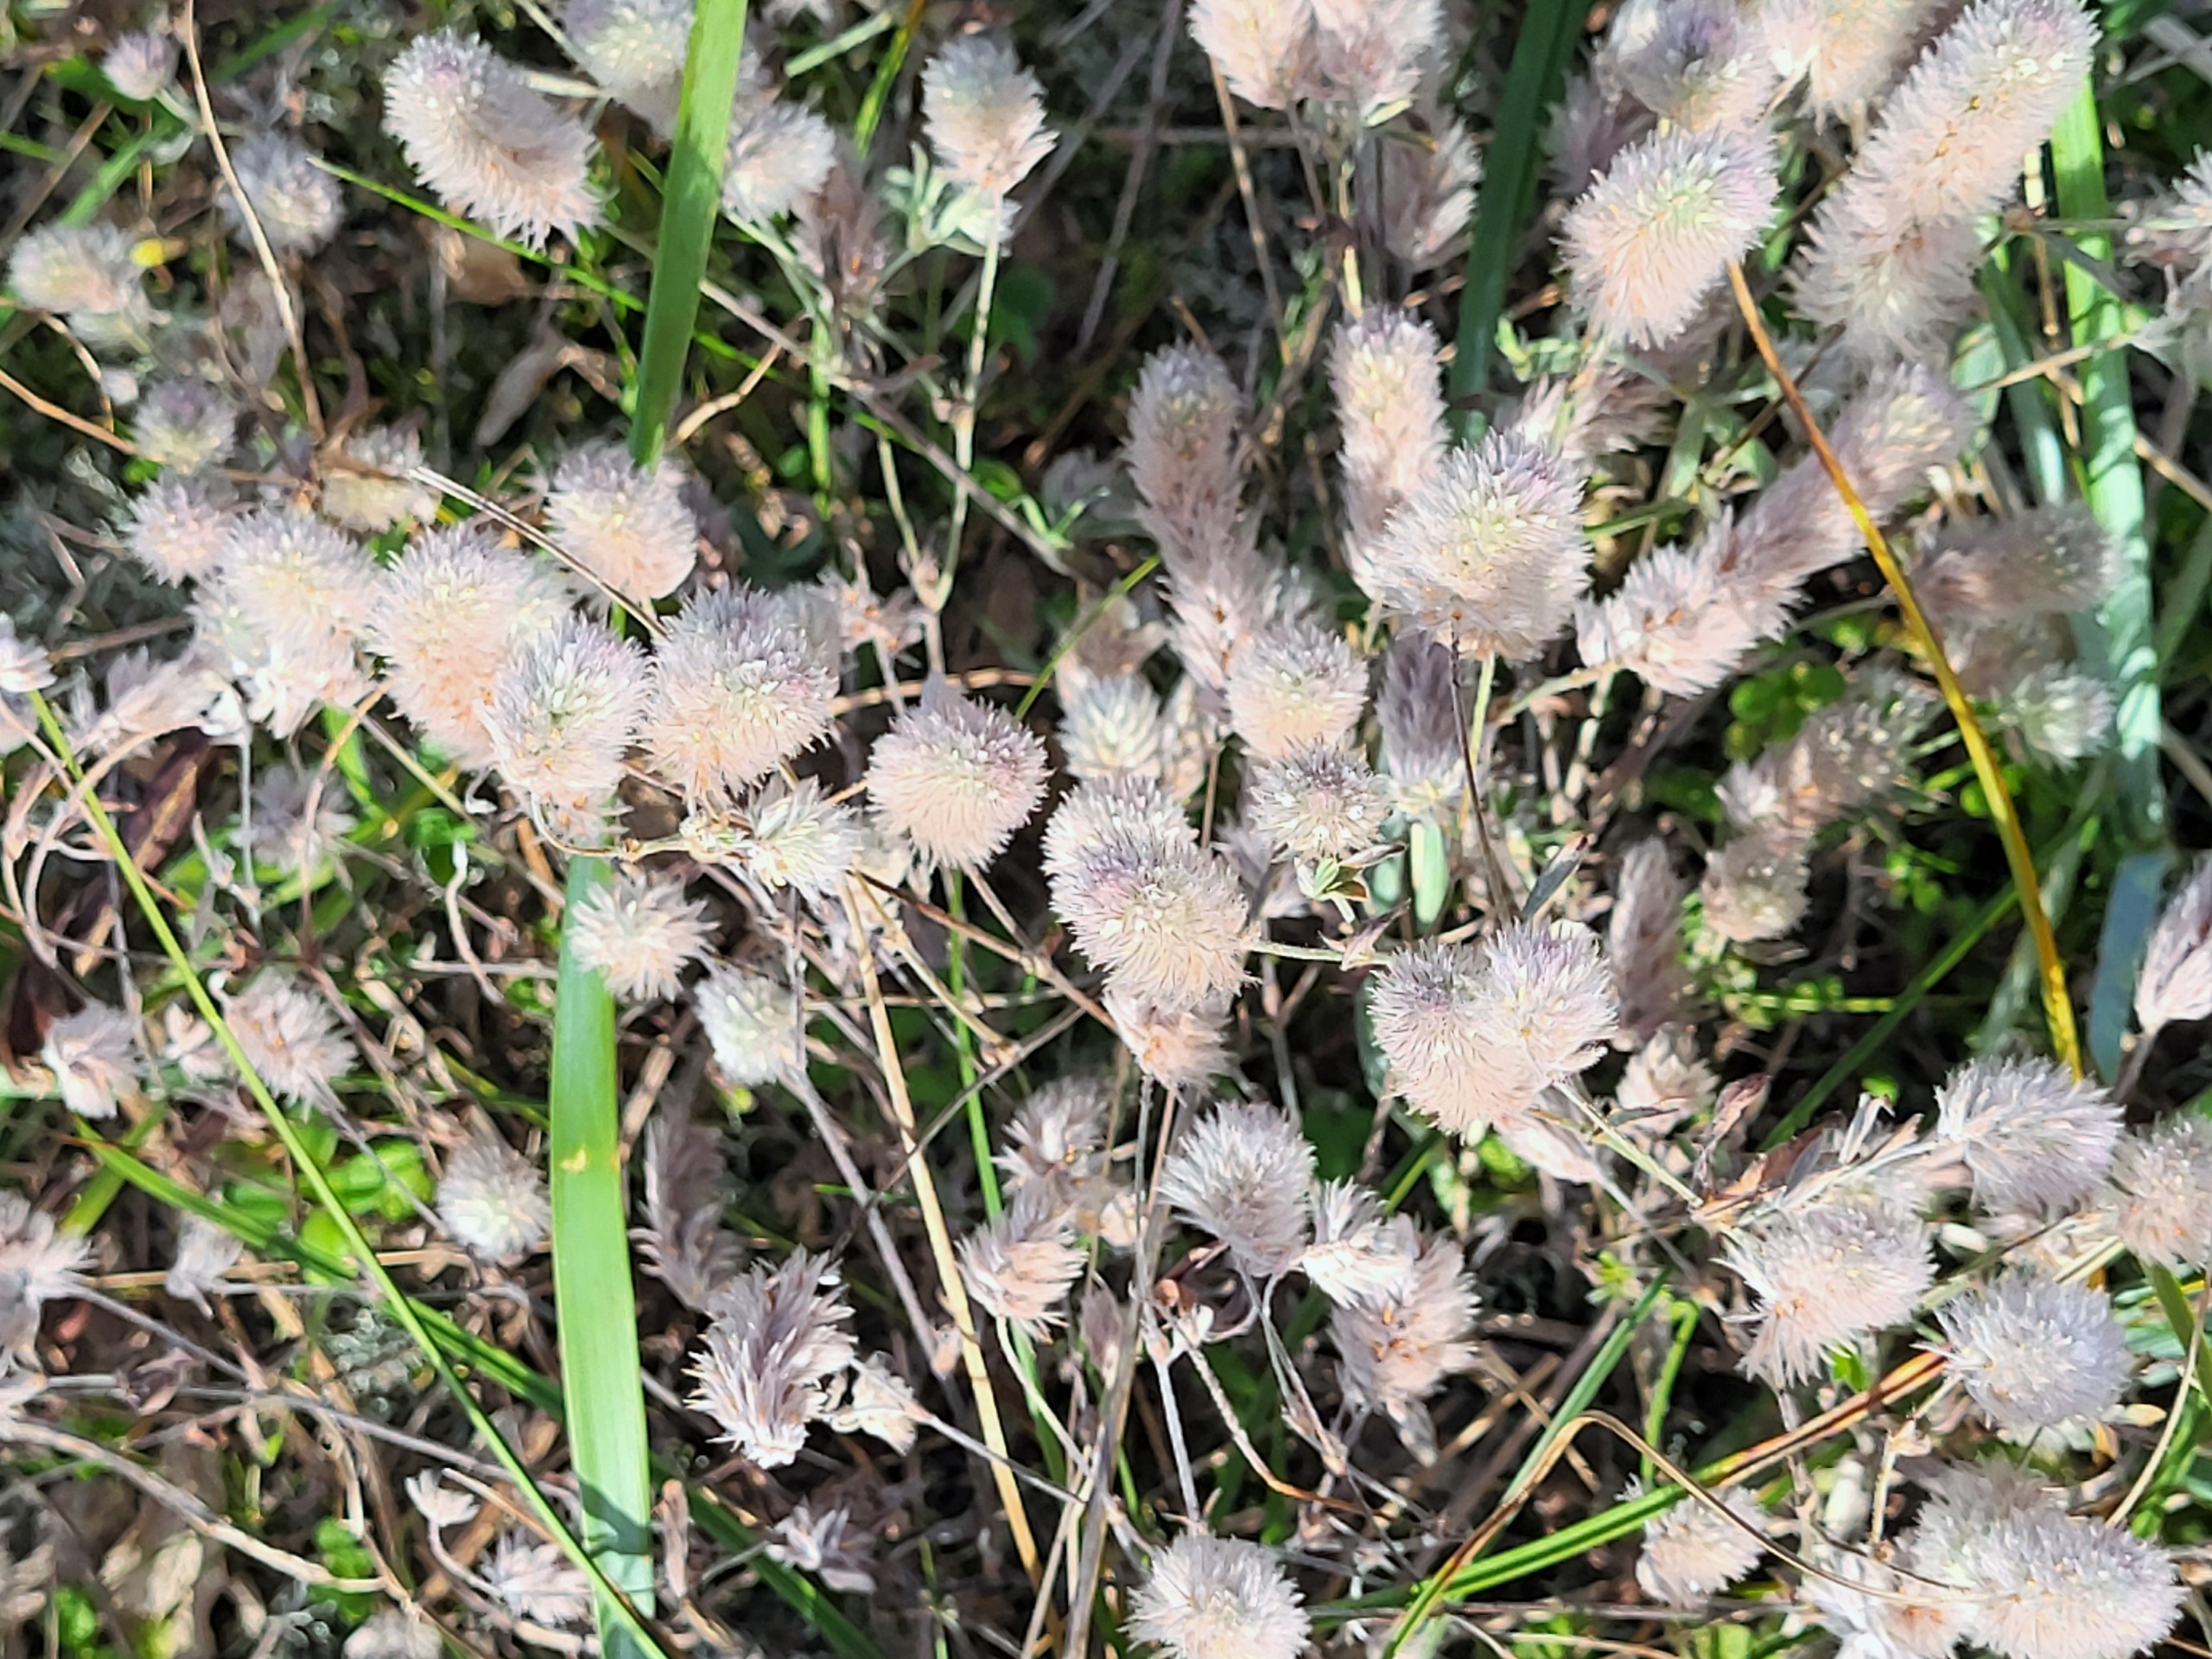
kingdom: Plantae
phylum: Tracheophyta
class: Magnoliopsida
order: Fabales
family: Fabaceae
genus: Trifolium
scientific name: Trifolium arvense
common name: Hare-kløver
